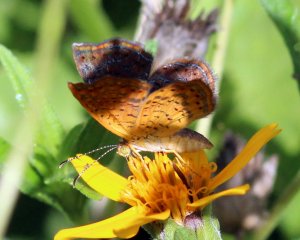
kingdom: Animalia
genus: Calephelis
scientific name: Calephelis perditalis
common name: Rounded Metalmark
